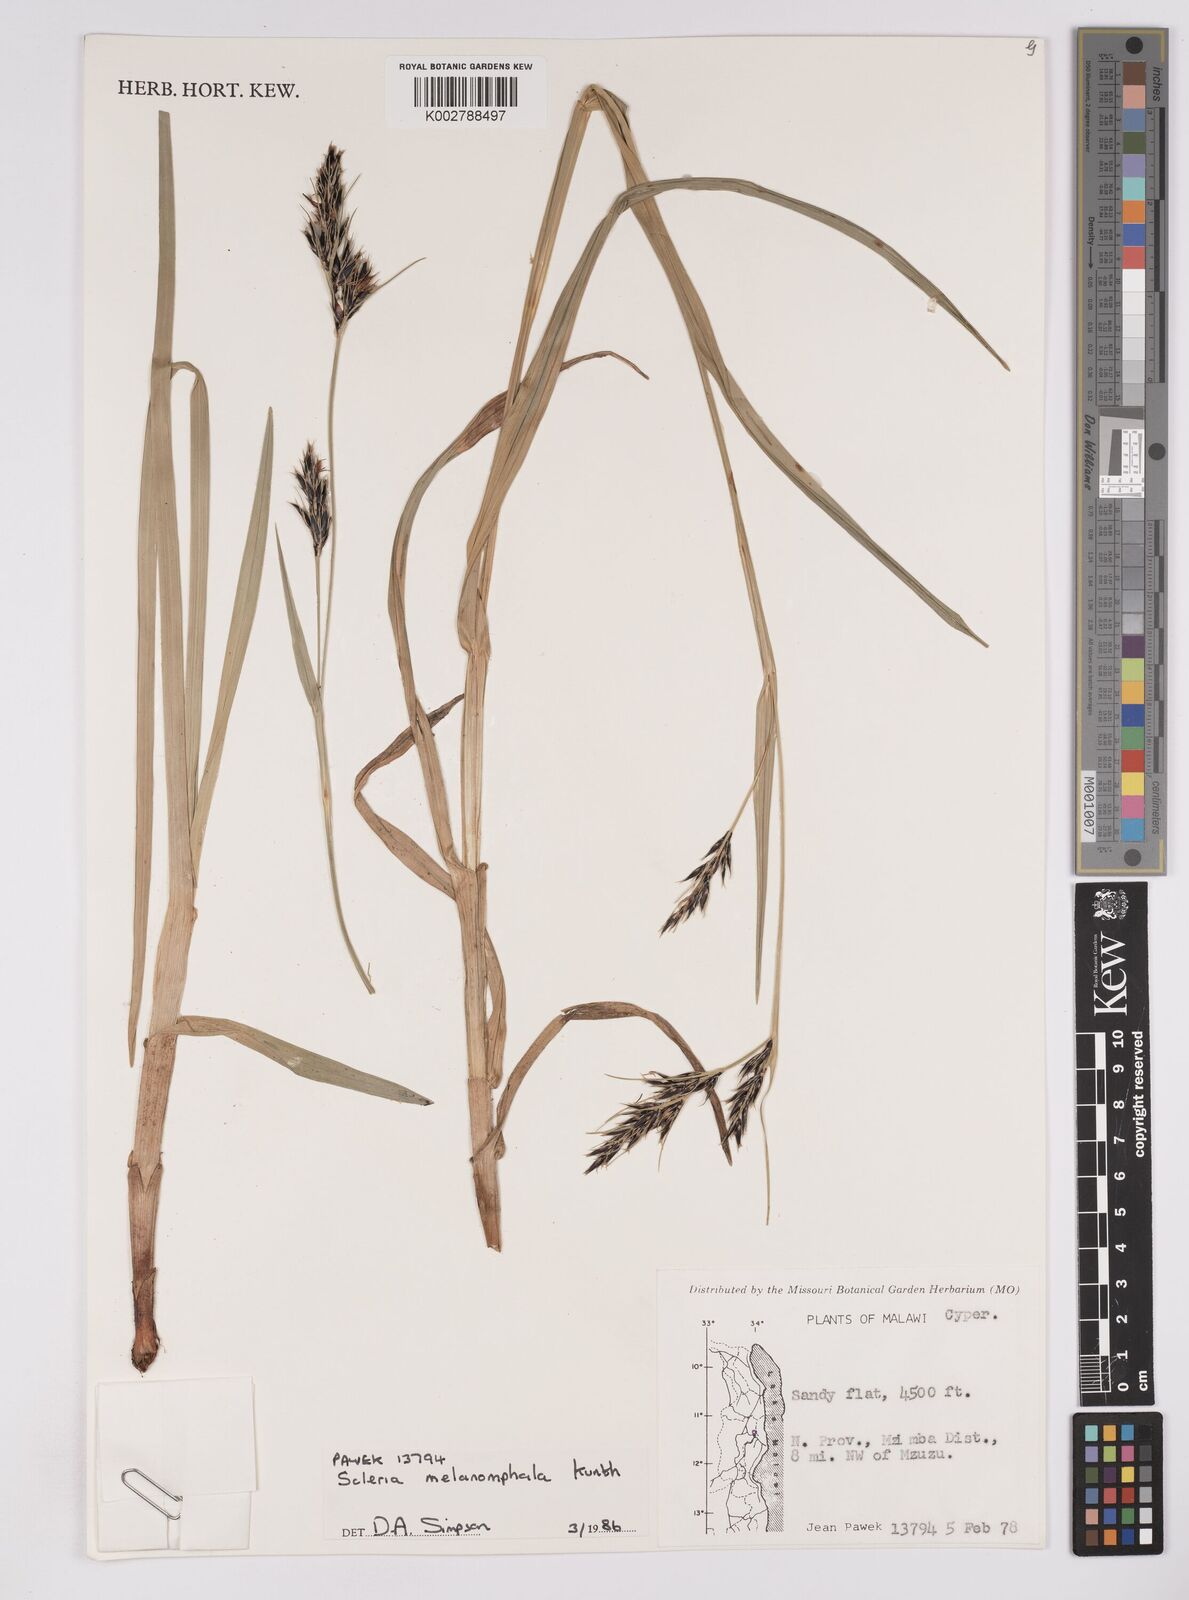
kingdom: Plantae
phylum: Tracheophyta
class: Liliopsida
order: Poales
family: Cyperaceae
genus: Scleria
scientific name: Scleria melanomphala
